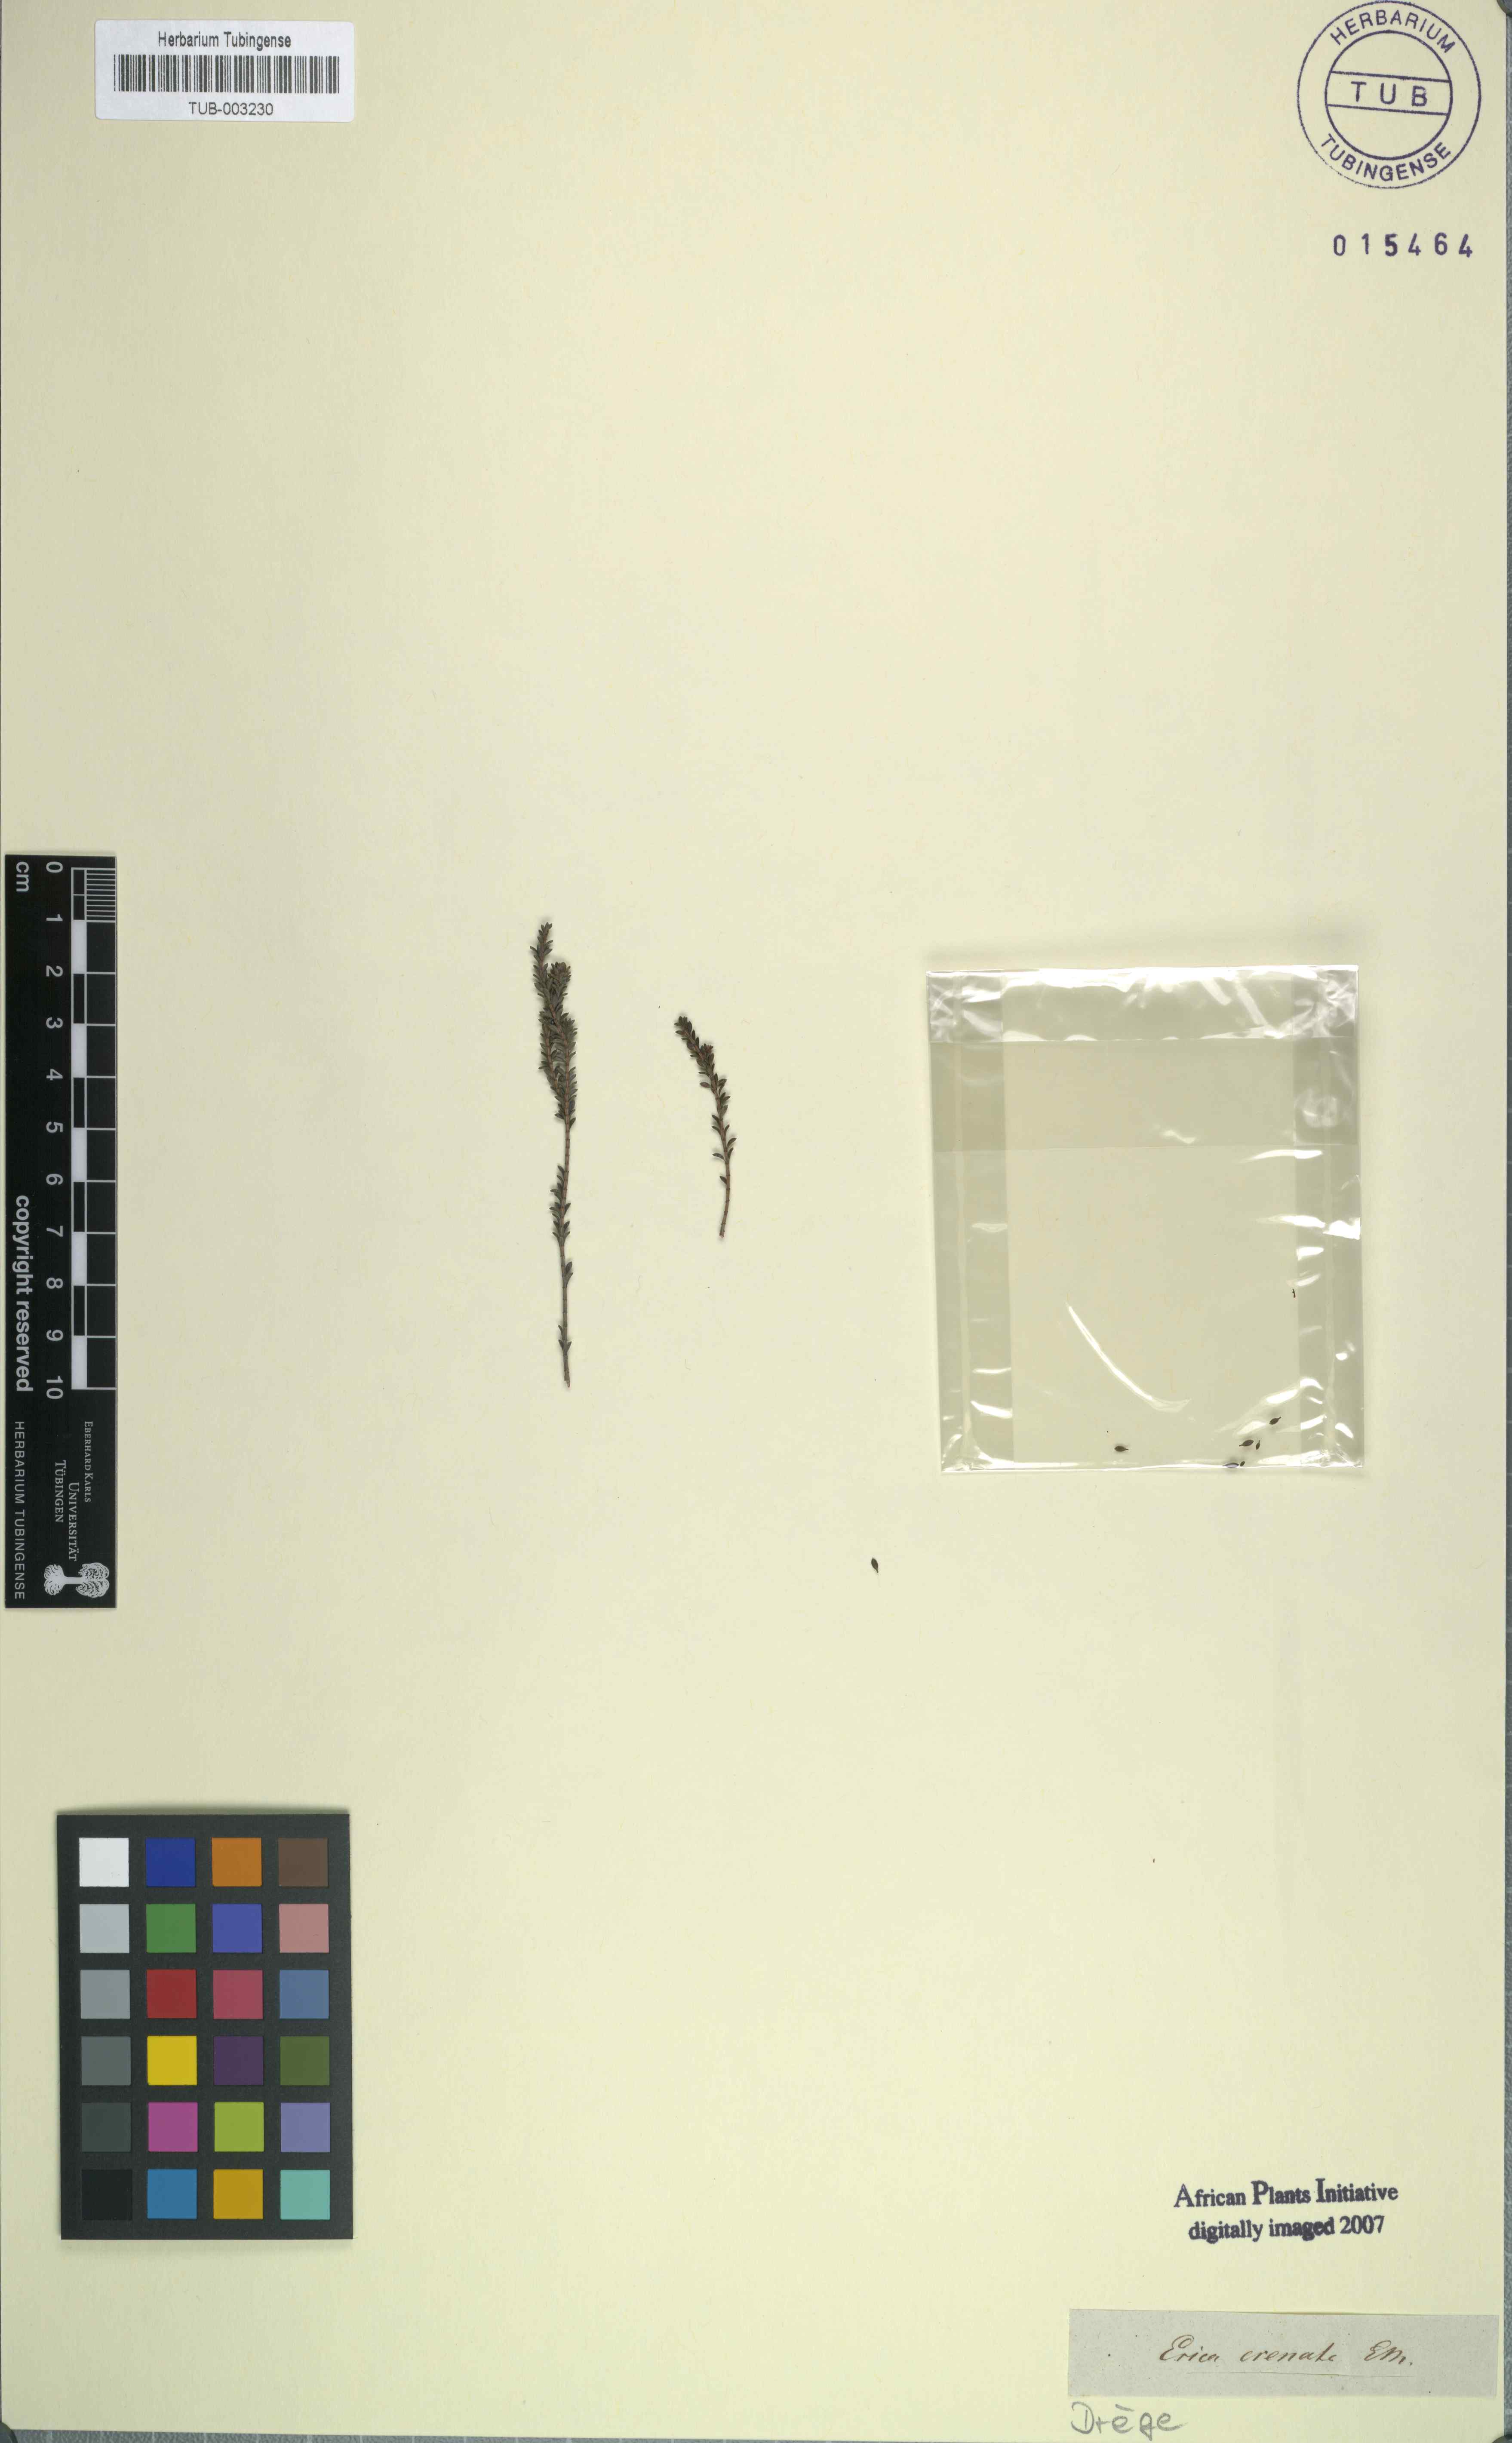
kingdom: Plantae
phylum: Tracheophyta
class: Magnoliopsida
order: Ericales
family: Ericaceae
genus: Erica
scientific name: Erica ferrea
